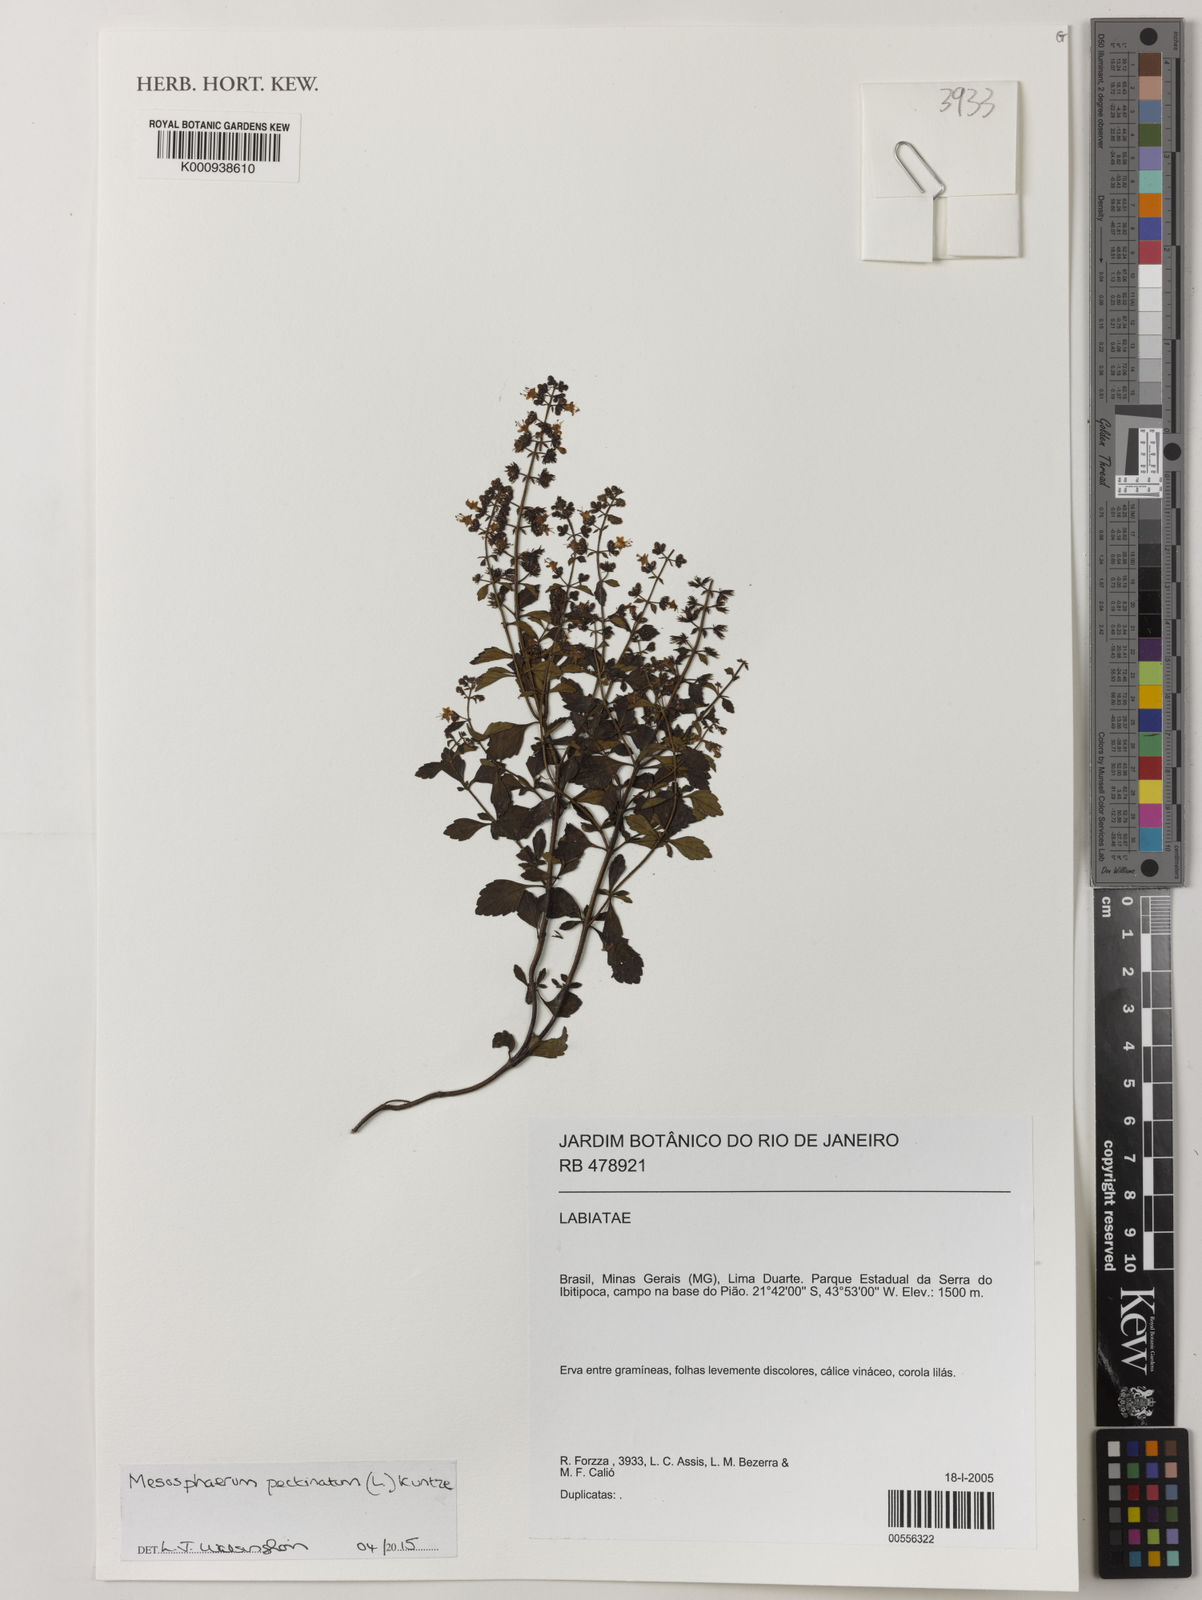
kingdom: Plantae
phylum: Tracheophyta
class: Magnoliopsida
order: Lamiales
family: Lamiaceae
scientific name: Lamiaceae
